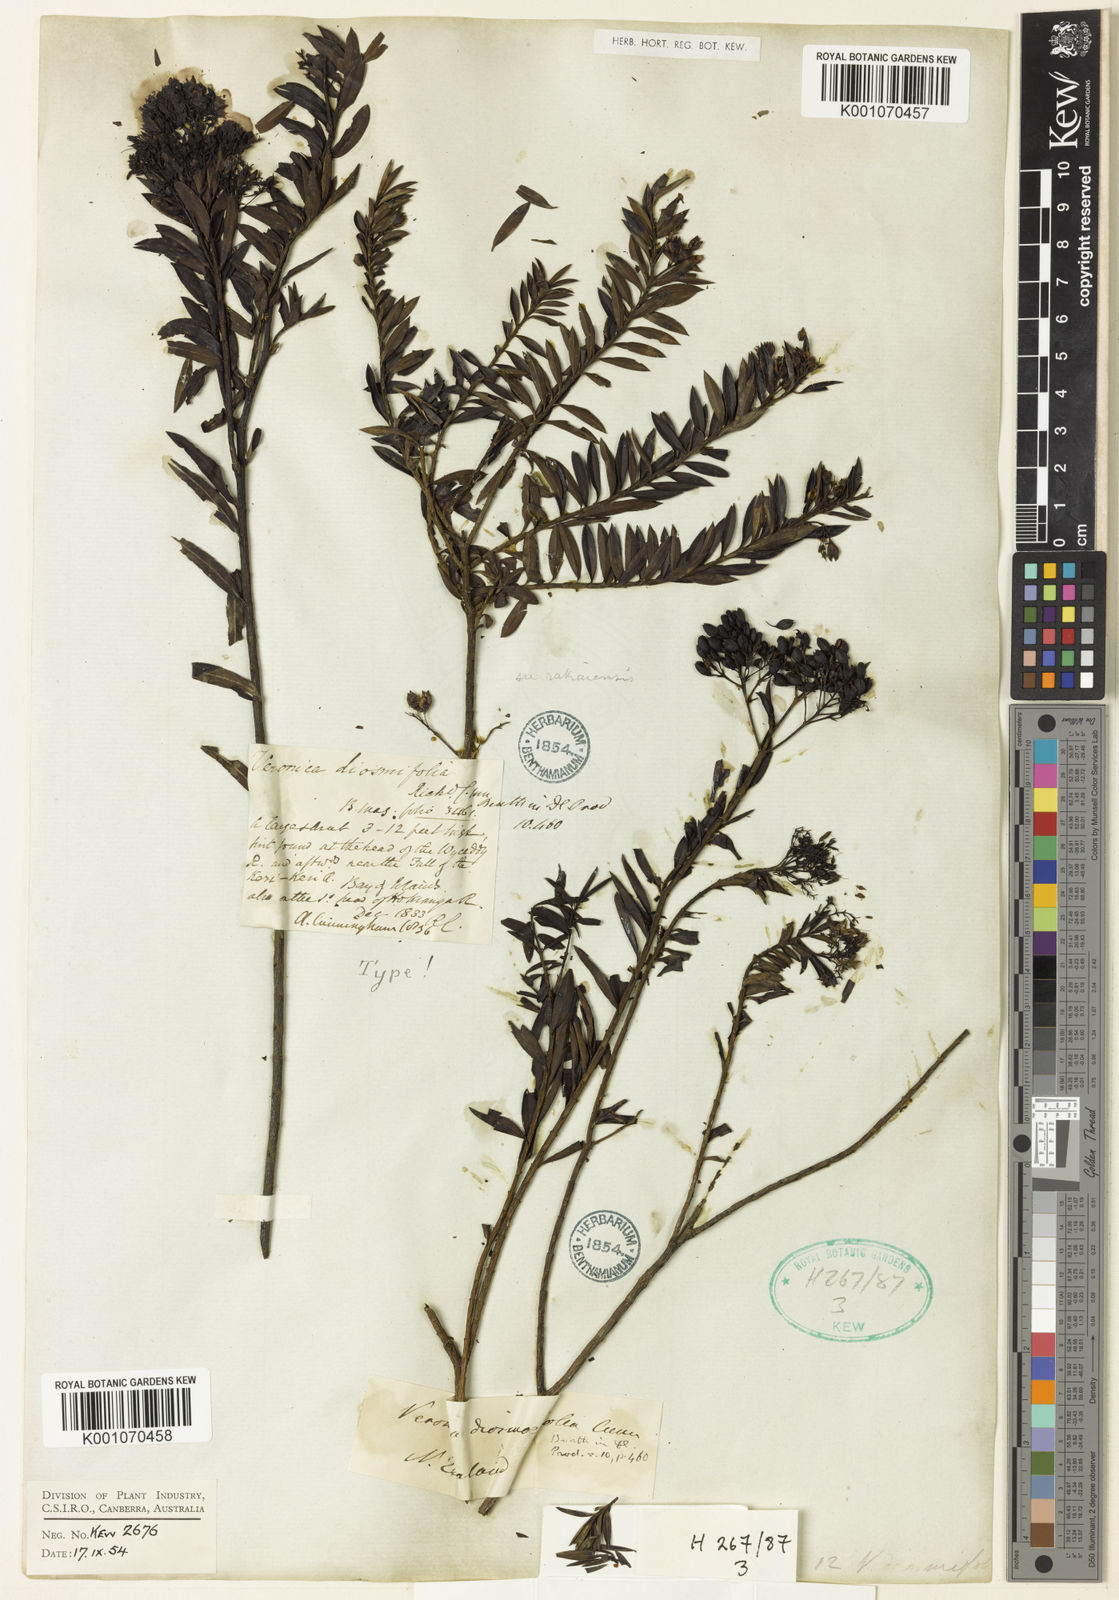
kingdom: Plantae
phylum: Tracheophyta
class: Magnoliopsida
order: Lamiales
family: Plantaginaceae
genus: Veronica
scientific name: Veronica
